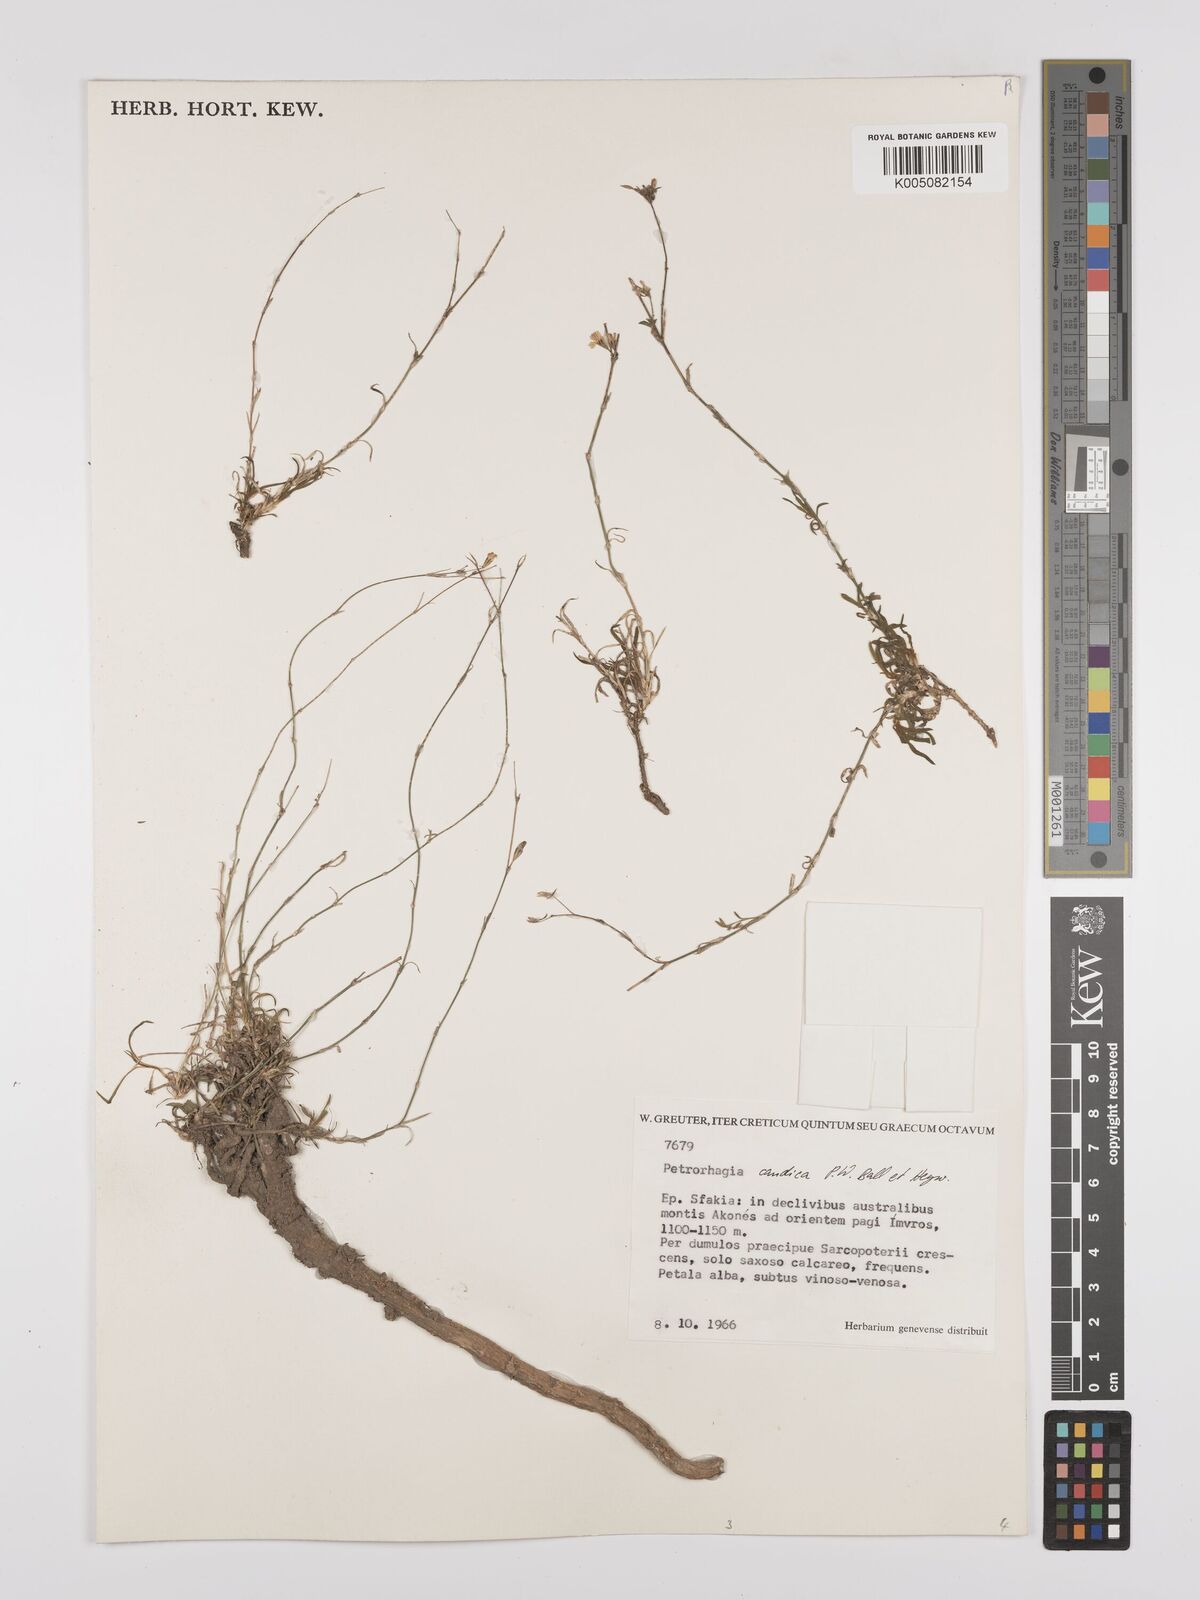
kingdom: Plantae
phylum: Tracheophyta
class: Magnoliopsida
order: Caryophyllales
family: Caryophyllaceae
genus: Dianthus
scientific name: Dianthus candicus
